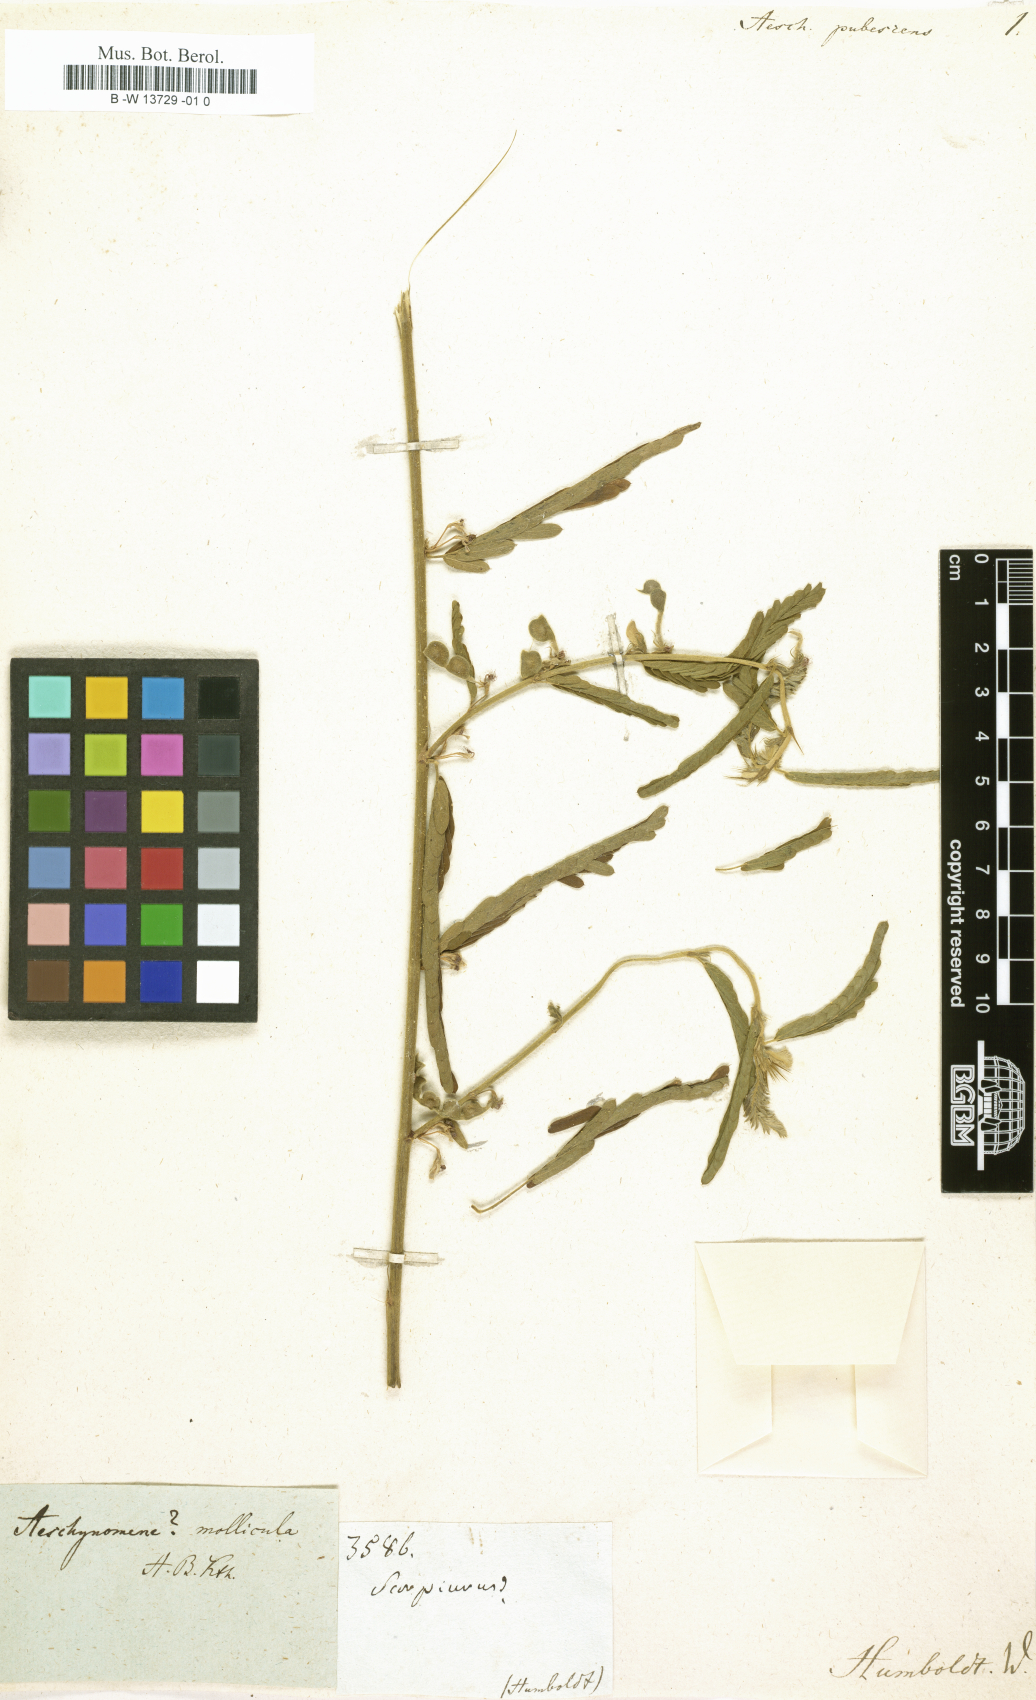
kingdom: Plantae
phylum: Tracheophyta
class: Magnoliopsida
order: Fabales
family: Fabaceae
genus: Aeschynomene
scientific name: Aeschynomene pubescens
